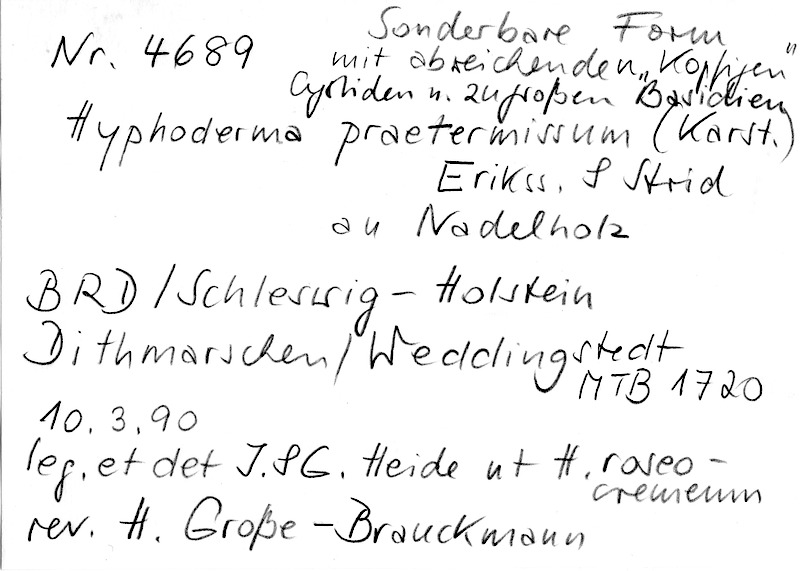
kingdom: Fungi
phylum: Basidiomycota
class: Agaricomycetes
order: Hymenochaetales
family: Rickenellaceae
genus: Peniophorella
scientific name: Peniophorella praetermissa
